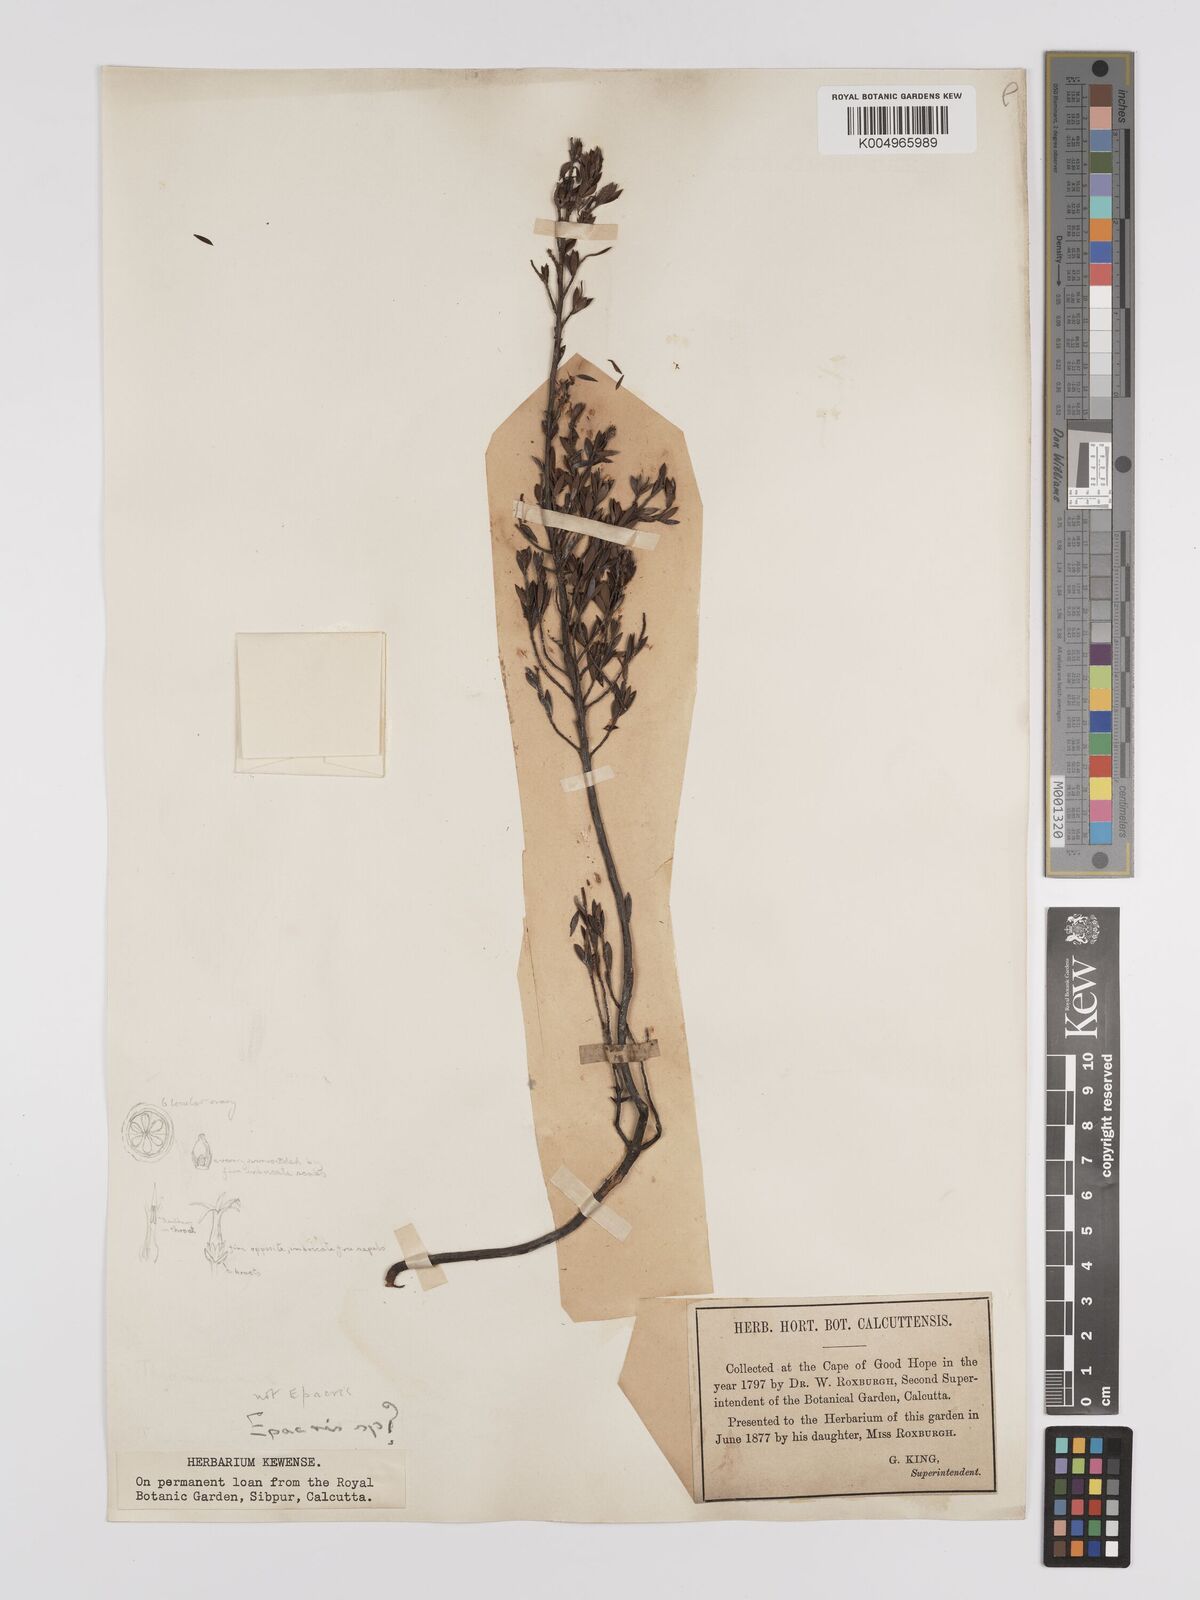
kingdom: Plantae
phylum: Tracheophyta
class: Magnoliopsida
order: Ericales
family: Ericaceae
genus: Epacris
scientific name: Epacris
